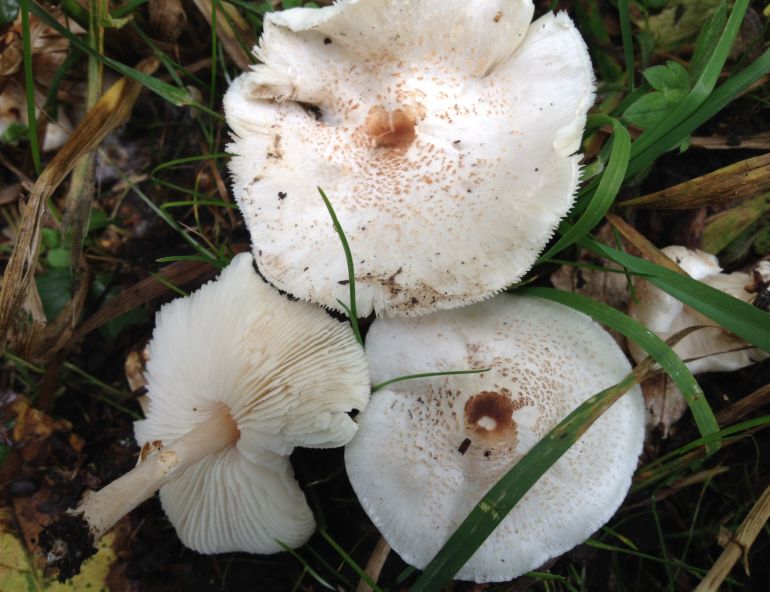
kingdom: Fungi
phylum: Basidiomycota
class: Agaricomycetes
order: Agaricales
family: Agaricaceae
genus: Lepiota
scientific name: Lepiota cristata
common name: stinkende parasolhat
